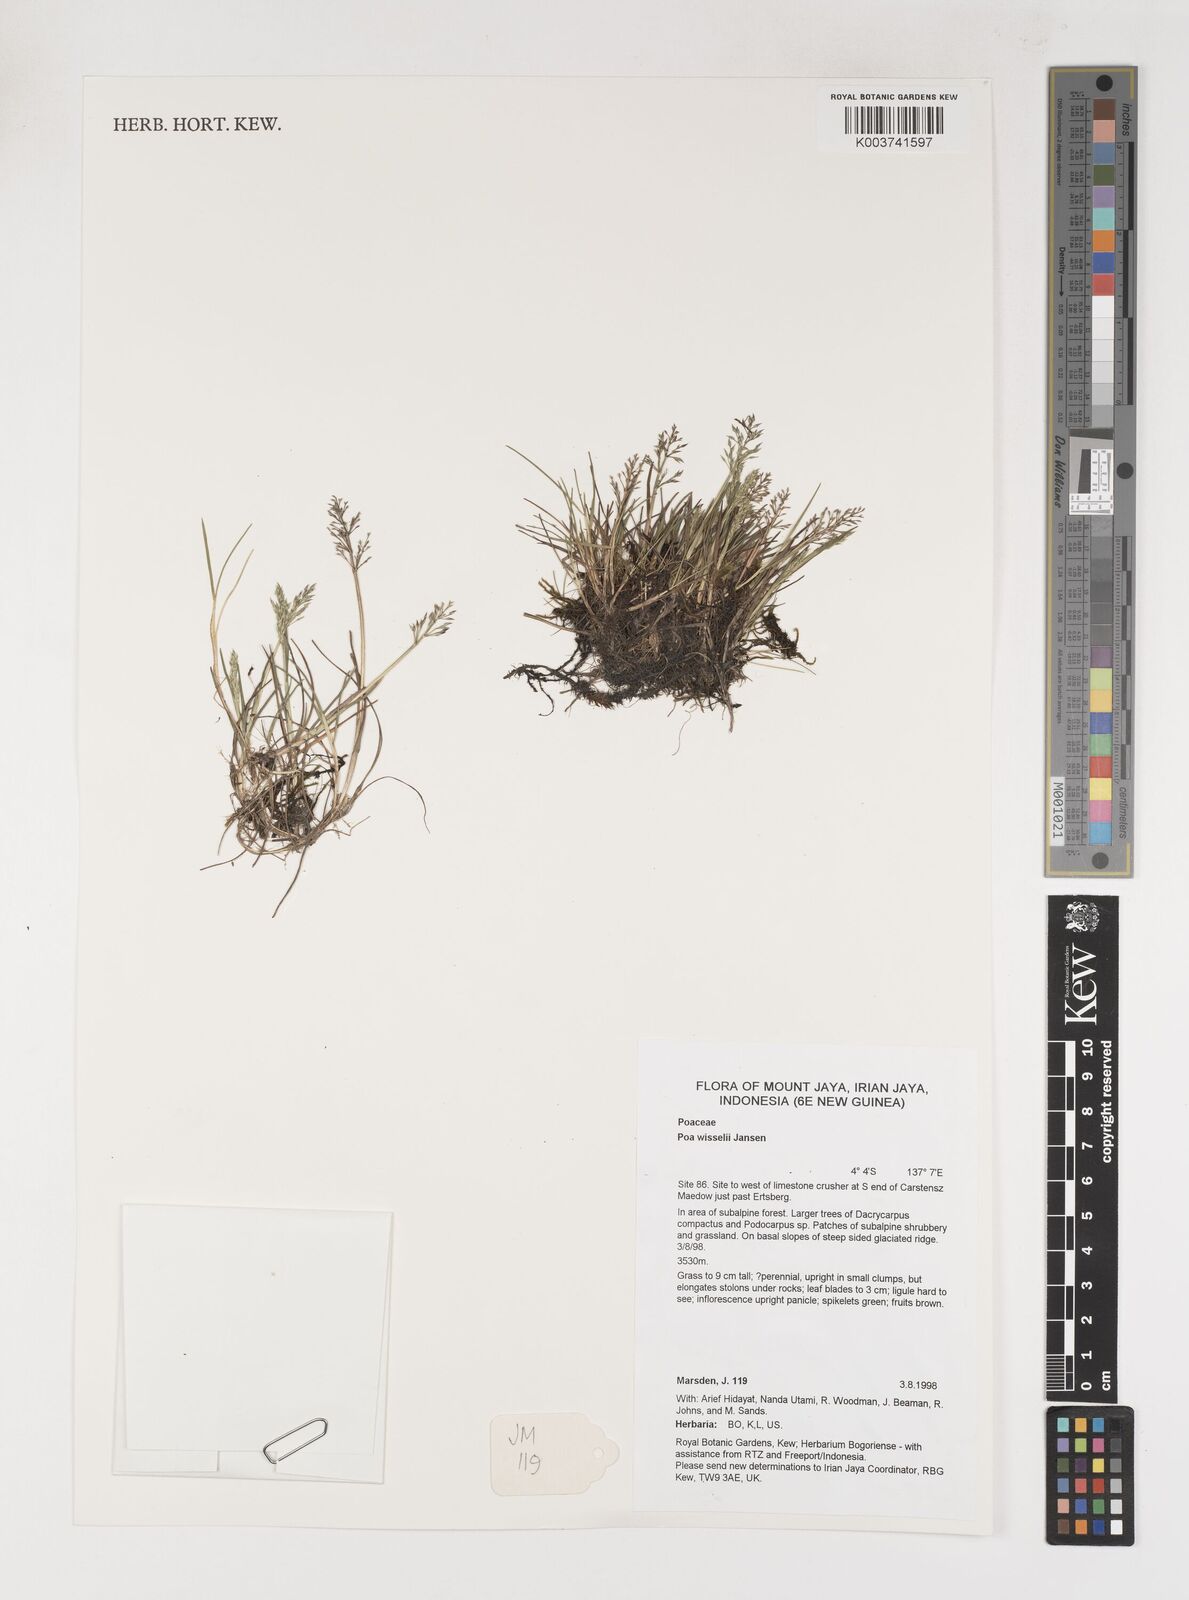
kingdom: Plantae
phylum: Tracheophyta
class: Liliopsida
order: Poales
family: Poaceae
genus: Poa
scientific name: Poa wisselii
